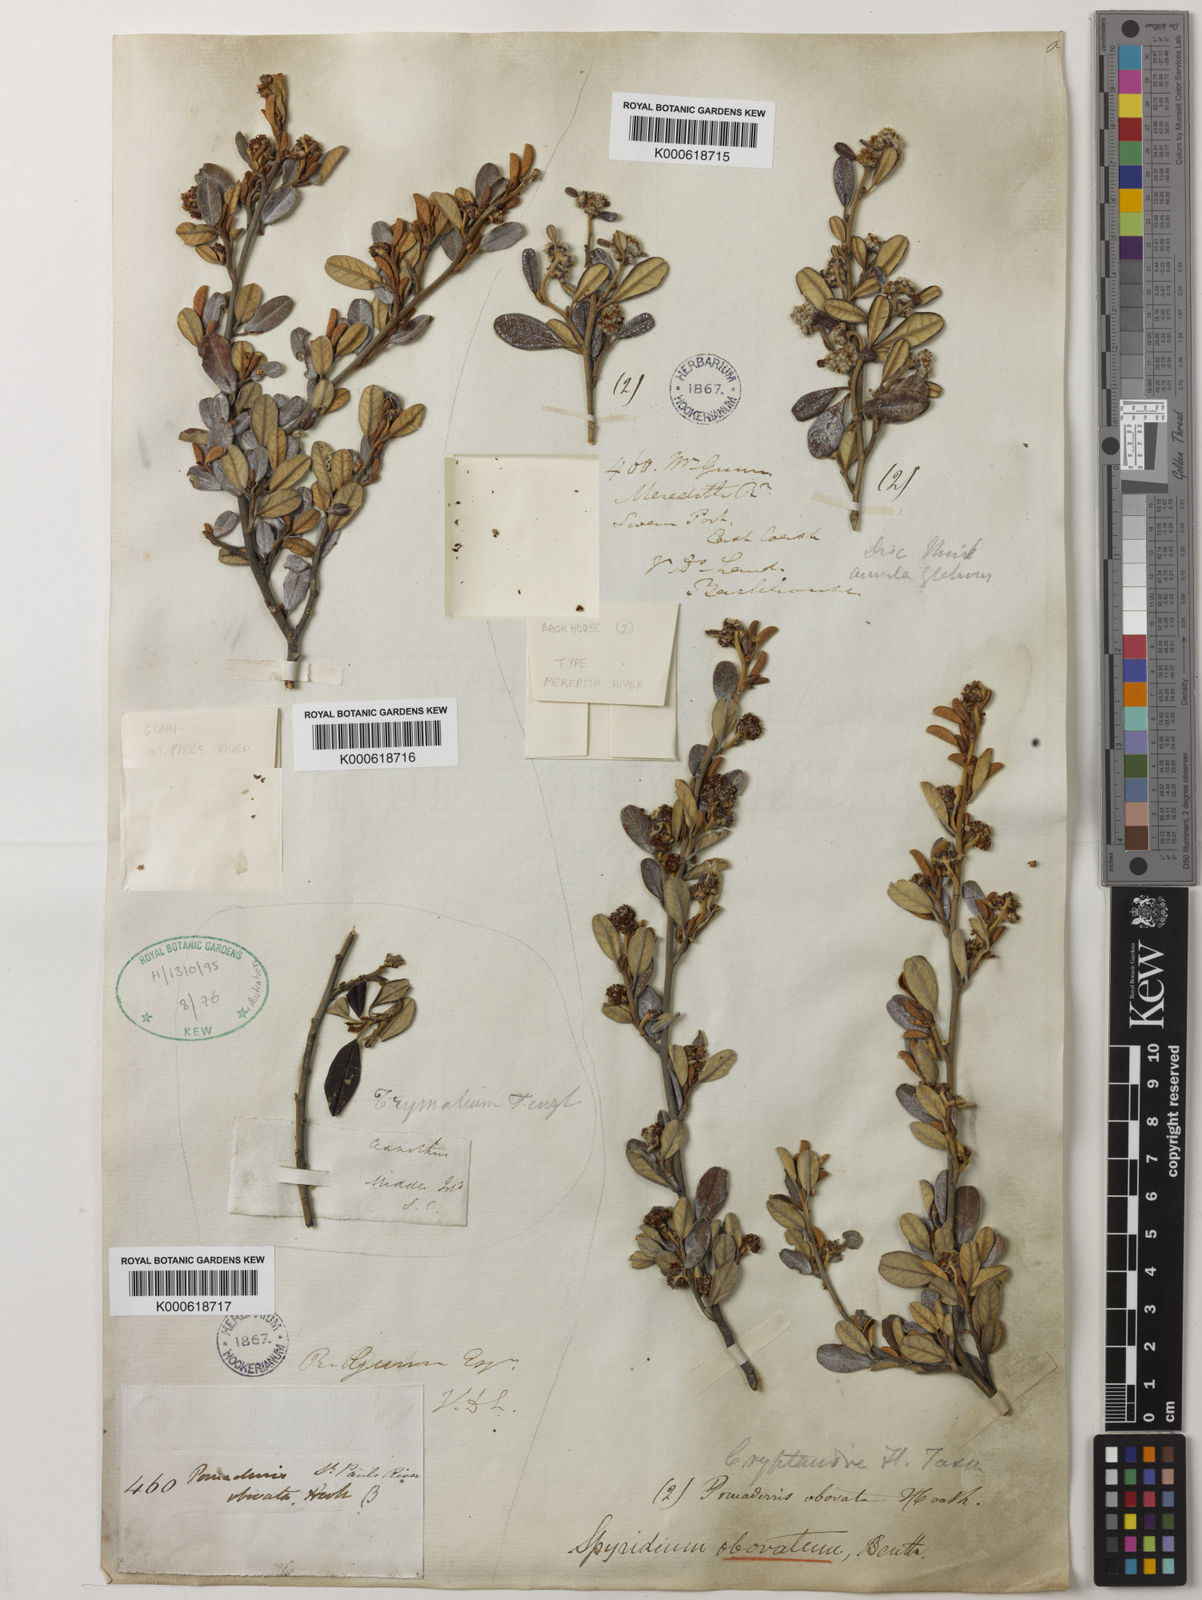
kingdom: Plantae
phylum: Tracheophyta
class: Magnoliopsida
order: Rosales
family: Rhamnaceae
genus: Spyridium
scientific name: Spyridium obovatum
